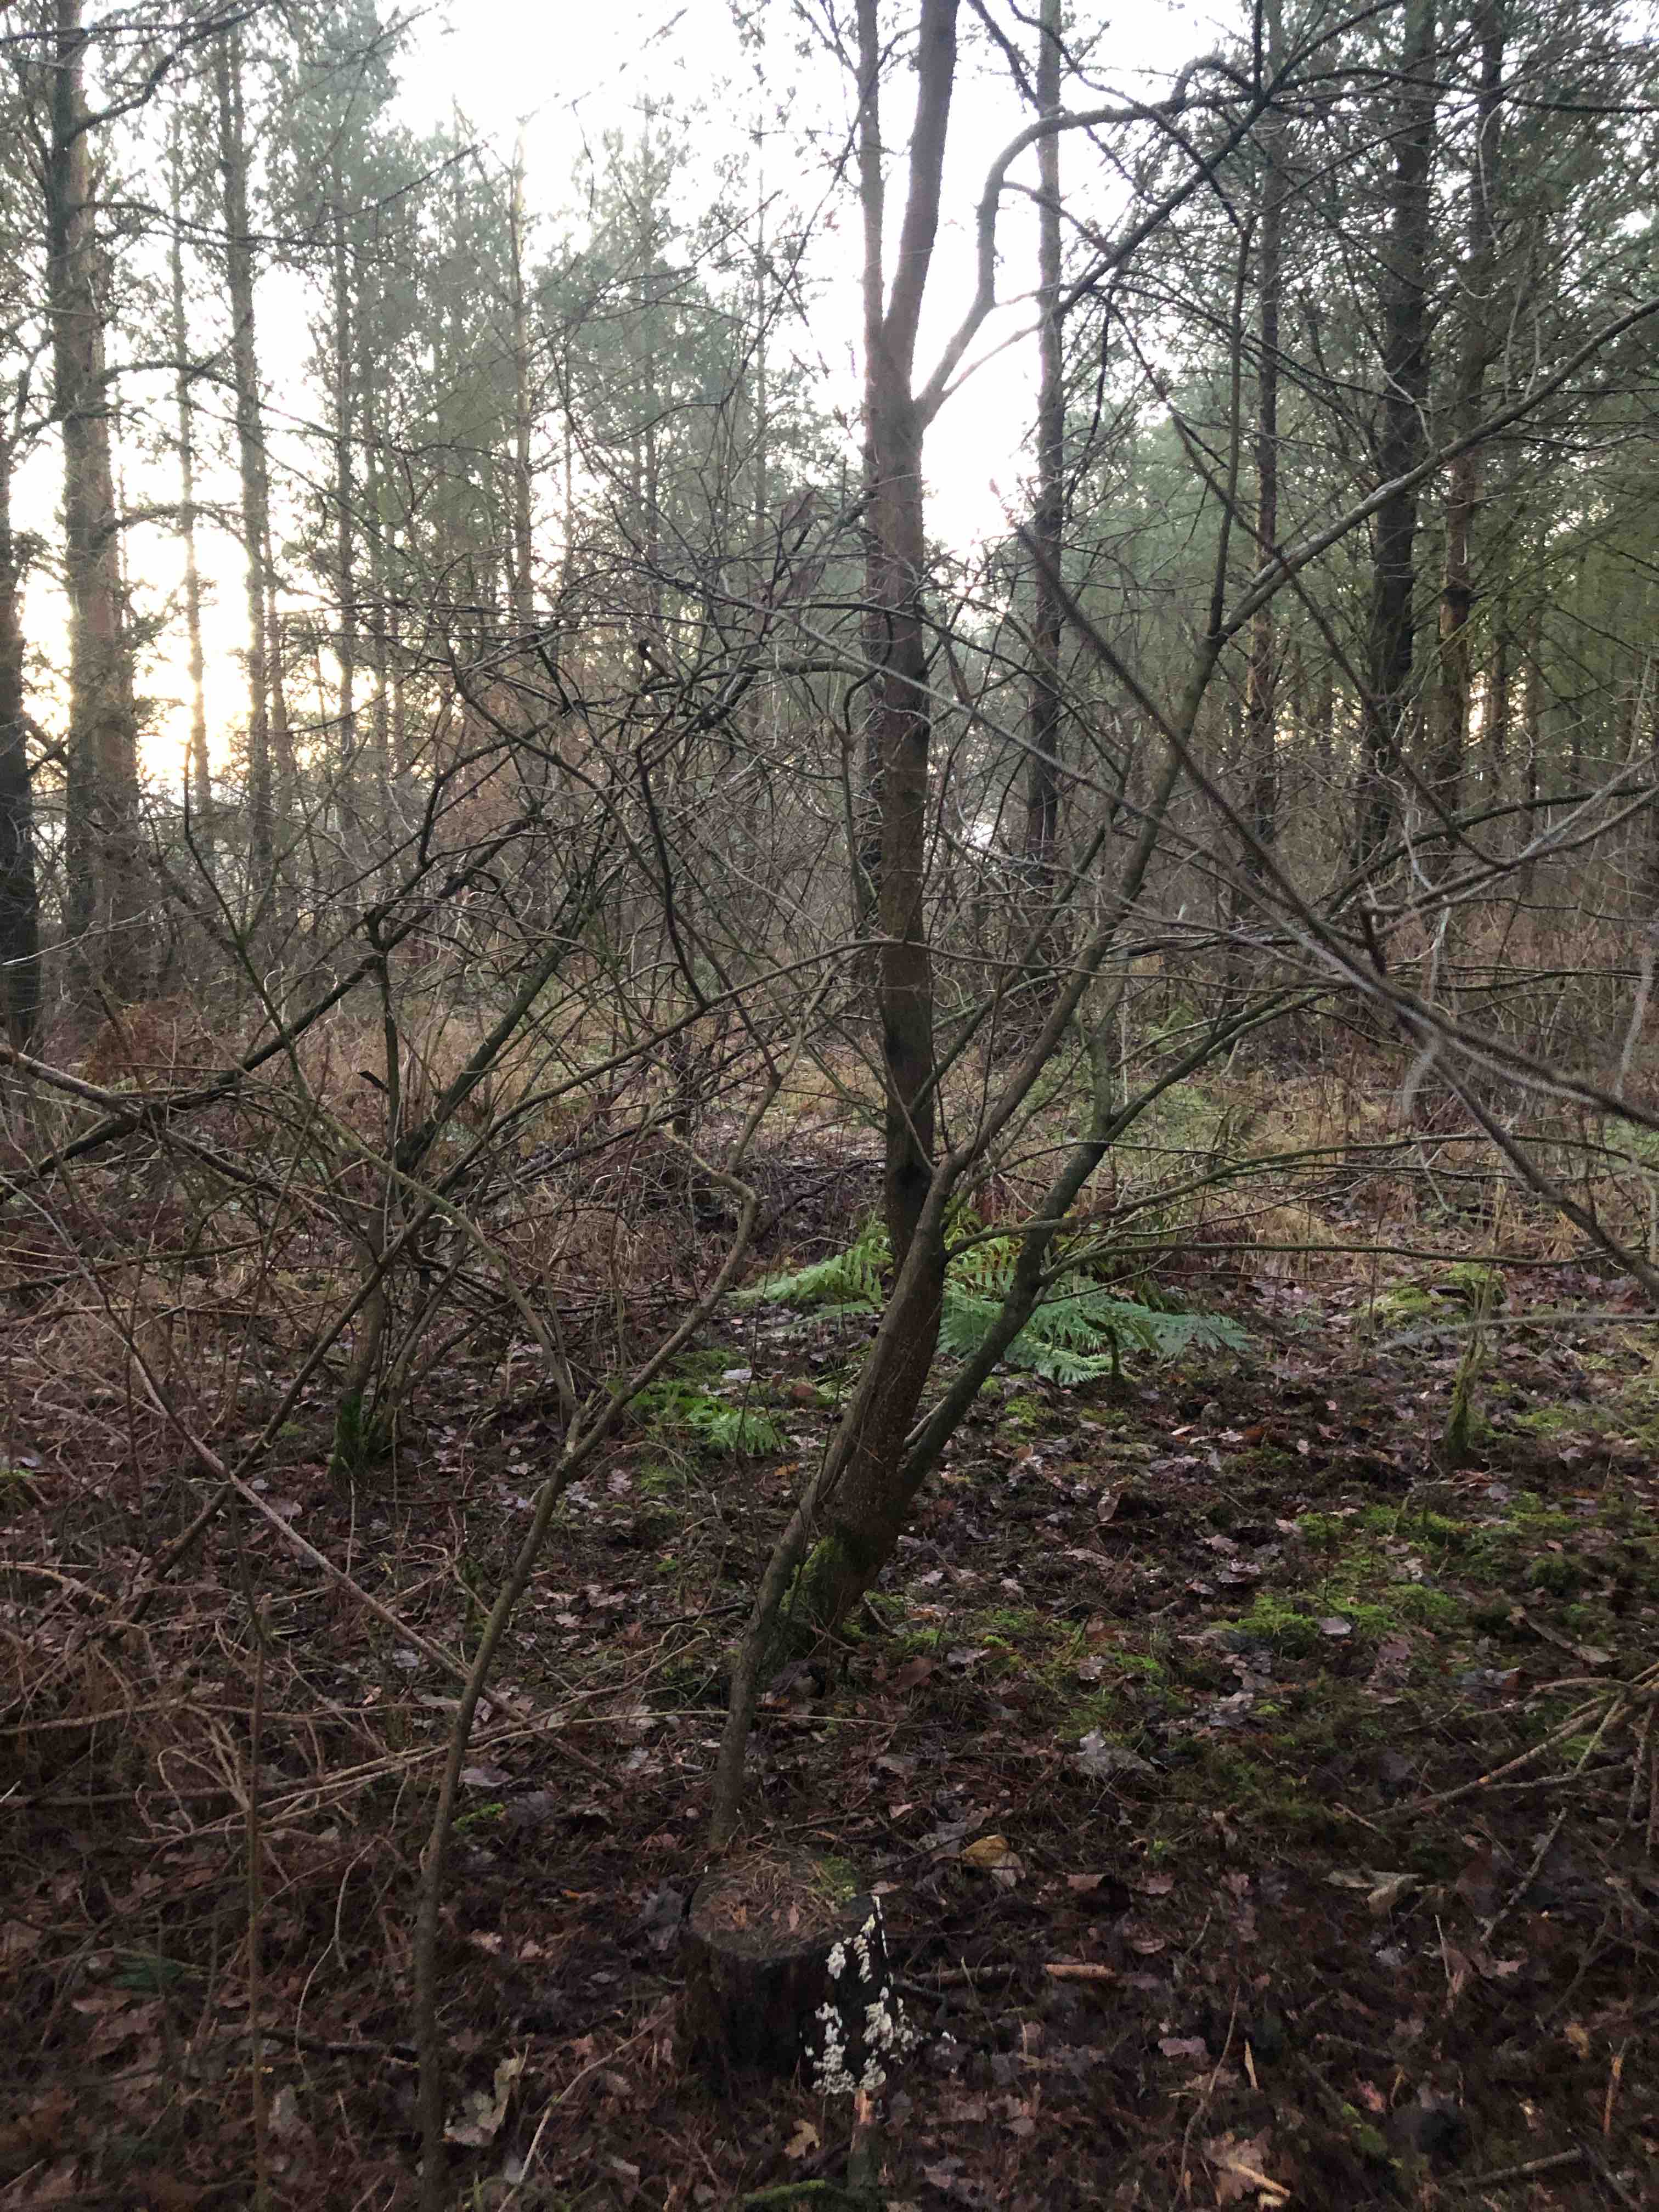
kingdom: Fungi
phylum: Basidiomycota
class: Agaricomycetes
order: Polyporales
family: Incrustoporiaceae
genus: Skeletocutis
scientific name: Skeletocutis amorpha
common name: orange krystalporesvamp
